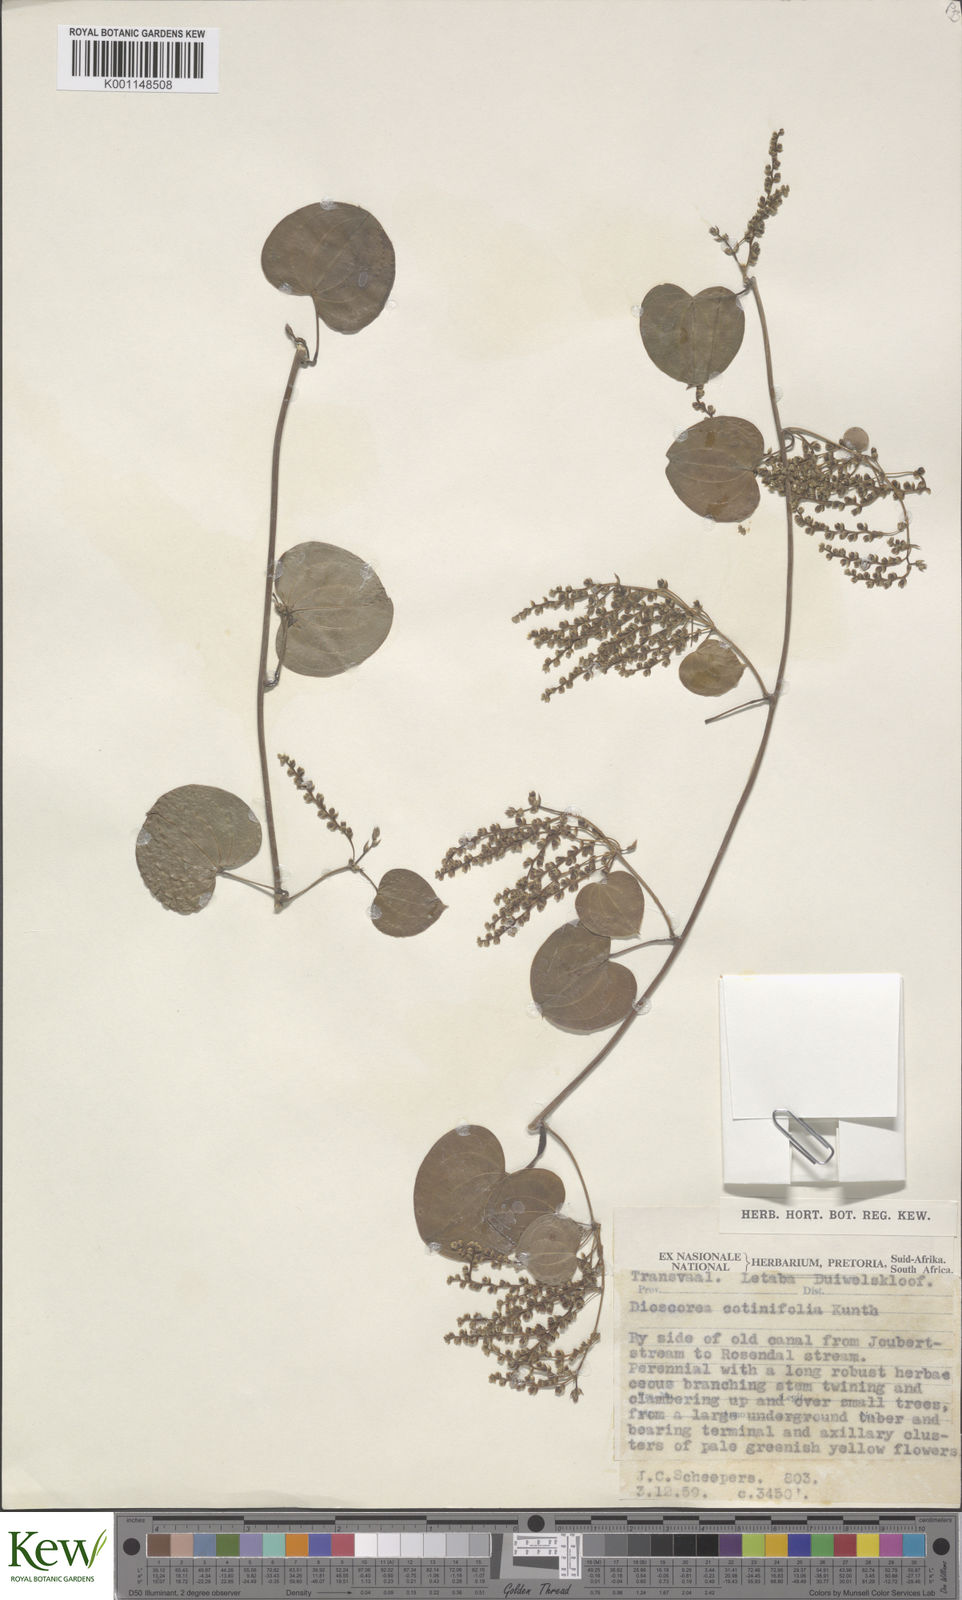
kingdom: Plantae
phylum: Tracheophyta
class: Liliopsida
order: Dioscoreales
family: Dioscoreaceae
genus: Dioscorea
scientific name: Dioscorea cotinifolia
